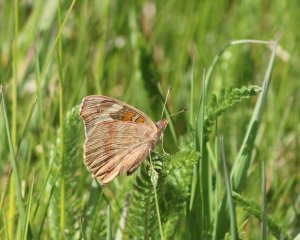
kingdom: Animalia
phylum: Arthropoda
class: Insecta
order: Lepidoptera
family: Nymphalidae
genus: Junonia
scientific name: Junonia coenia
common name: Common Buckeye
